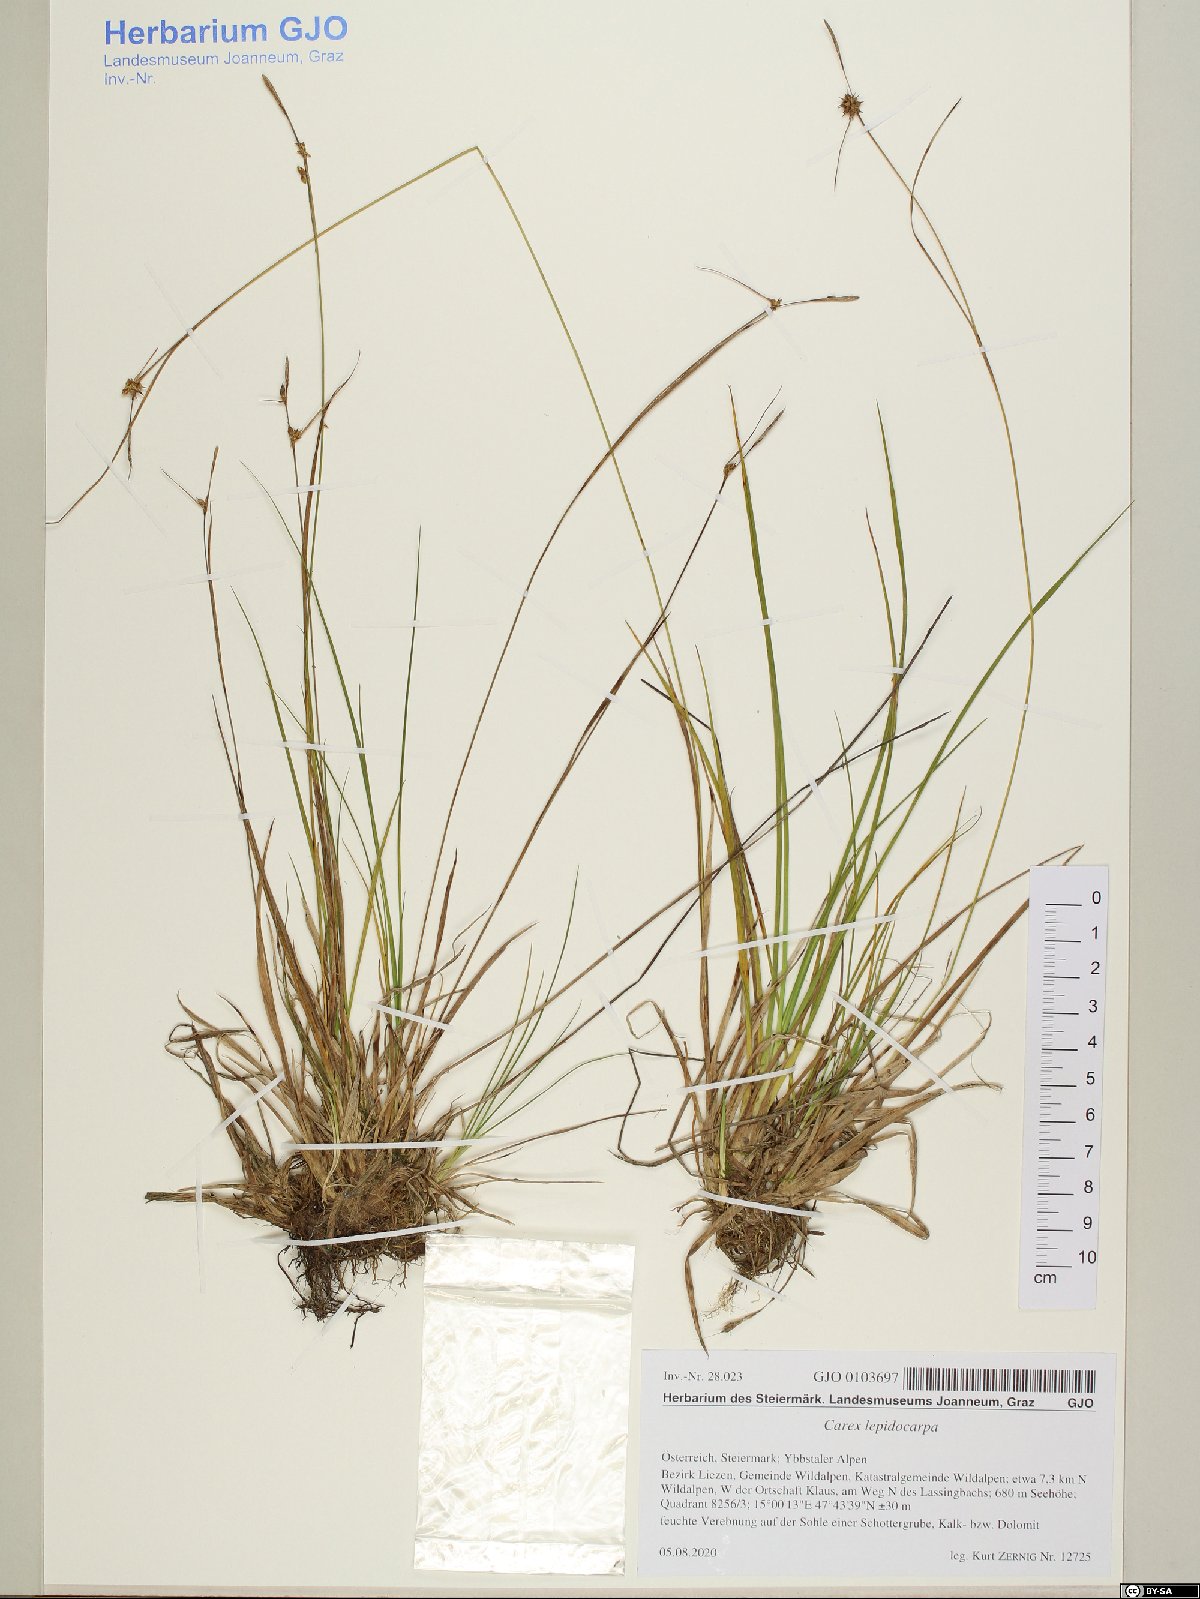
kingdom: Plantae
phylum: Tracheophyta
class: Liliopsida
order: Poales
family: Cyperaceae
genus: Carex
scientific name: Carex lepidocarpa
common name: Long-stalked yellow-sedge
